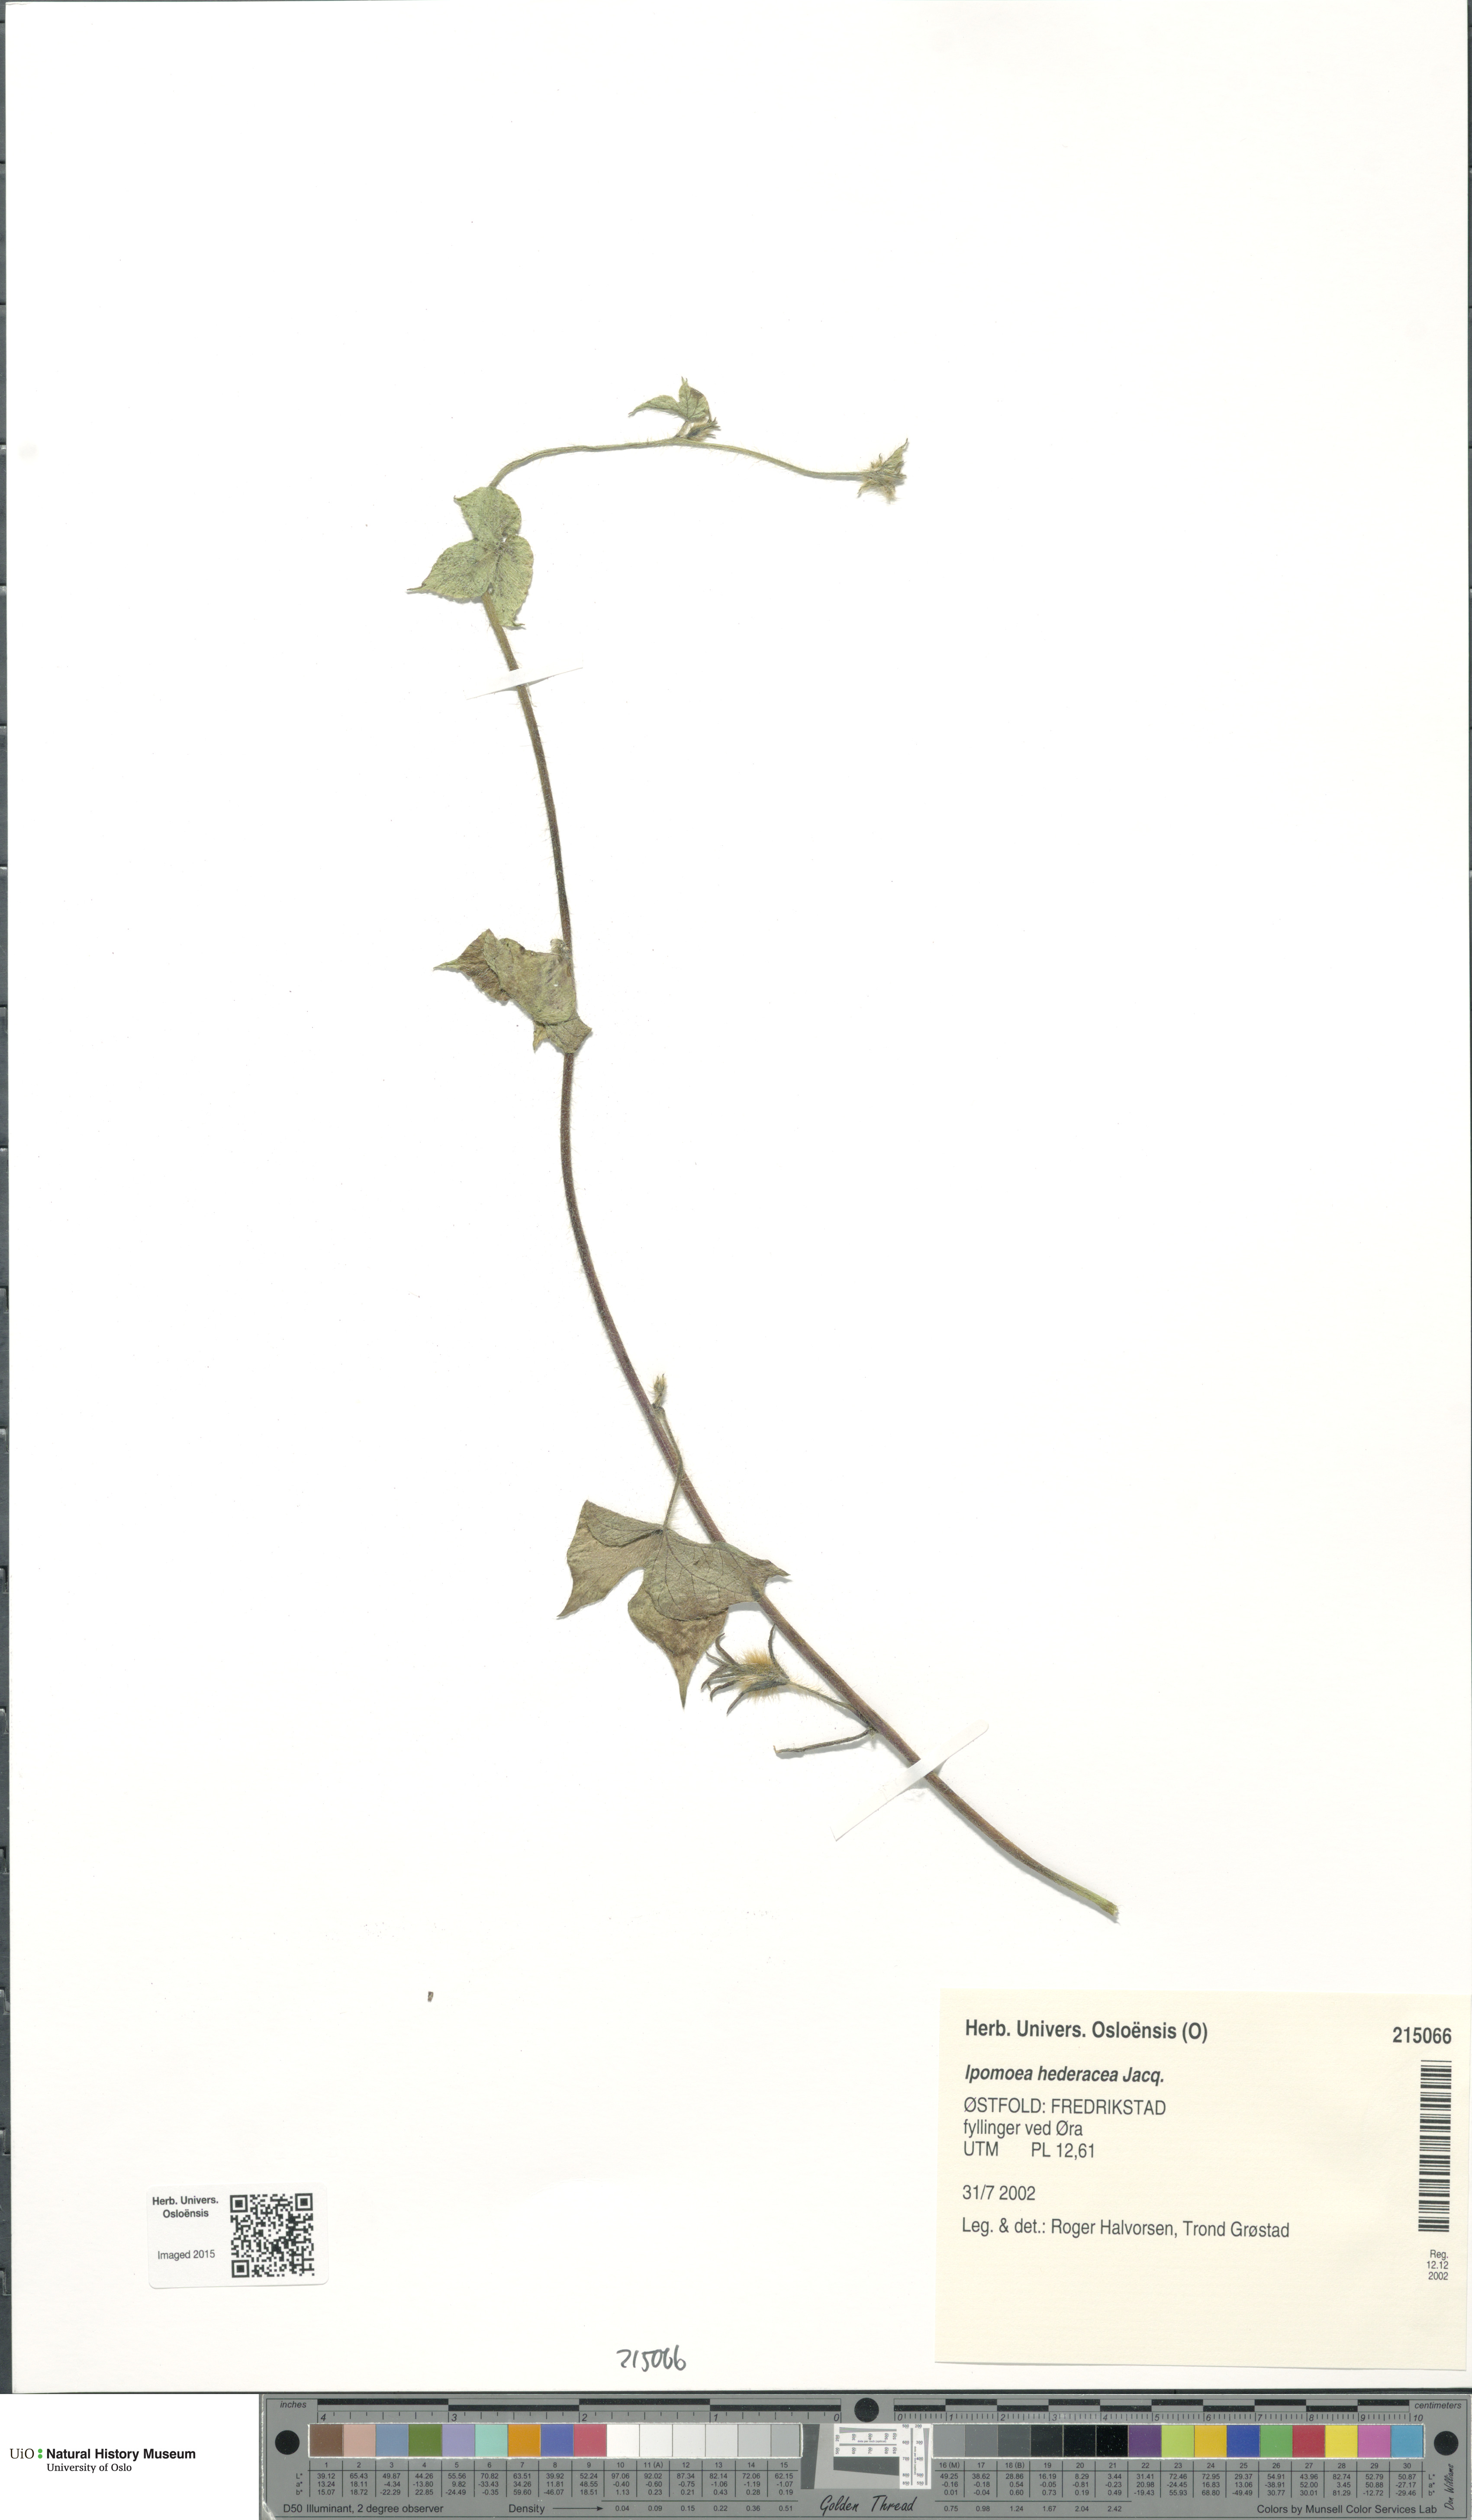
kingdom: Plantae
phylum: Tracheophyta
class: Magnoliopsida
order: Solanales
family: Convolvulaceae
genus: Ipomoea
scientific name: Ipomoea nil
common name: Japanese morning-glory
